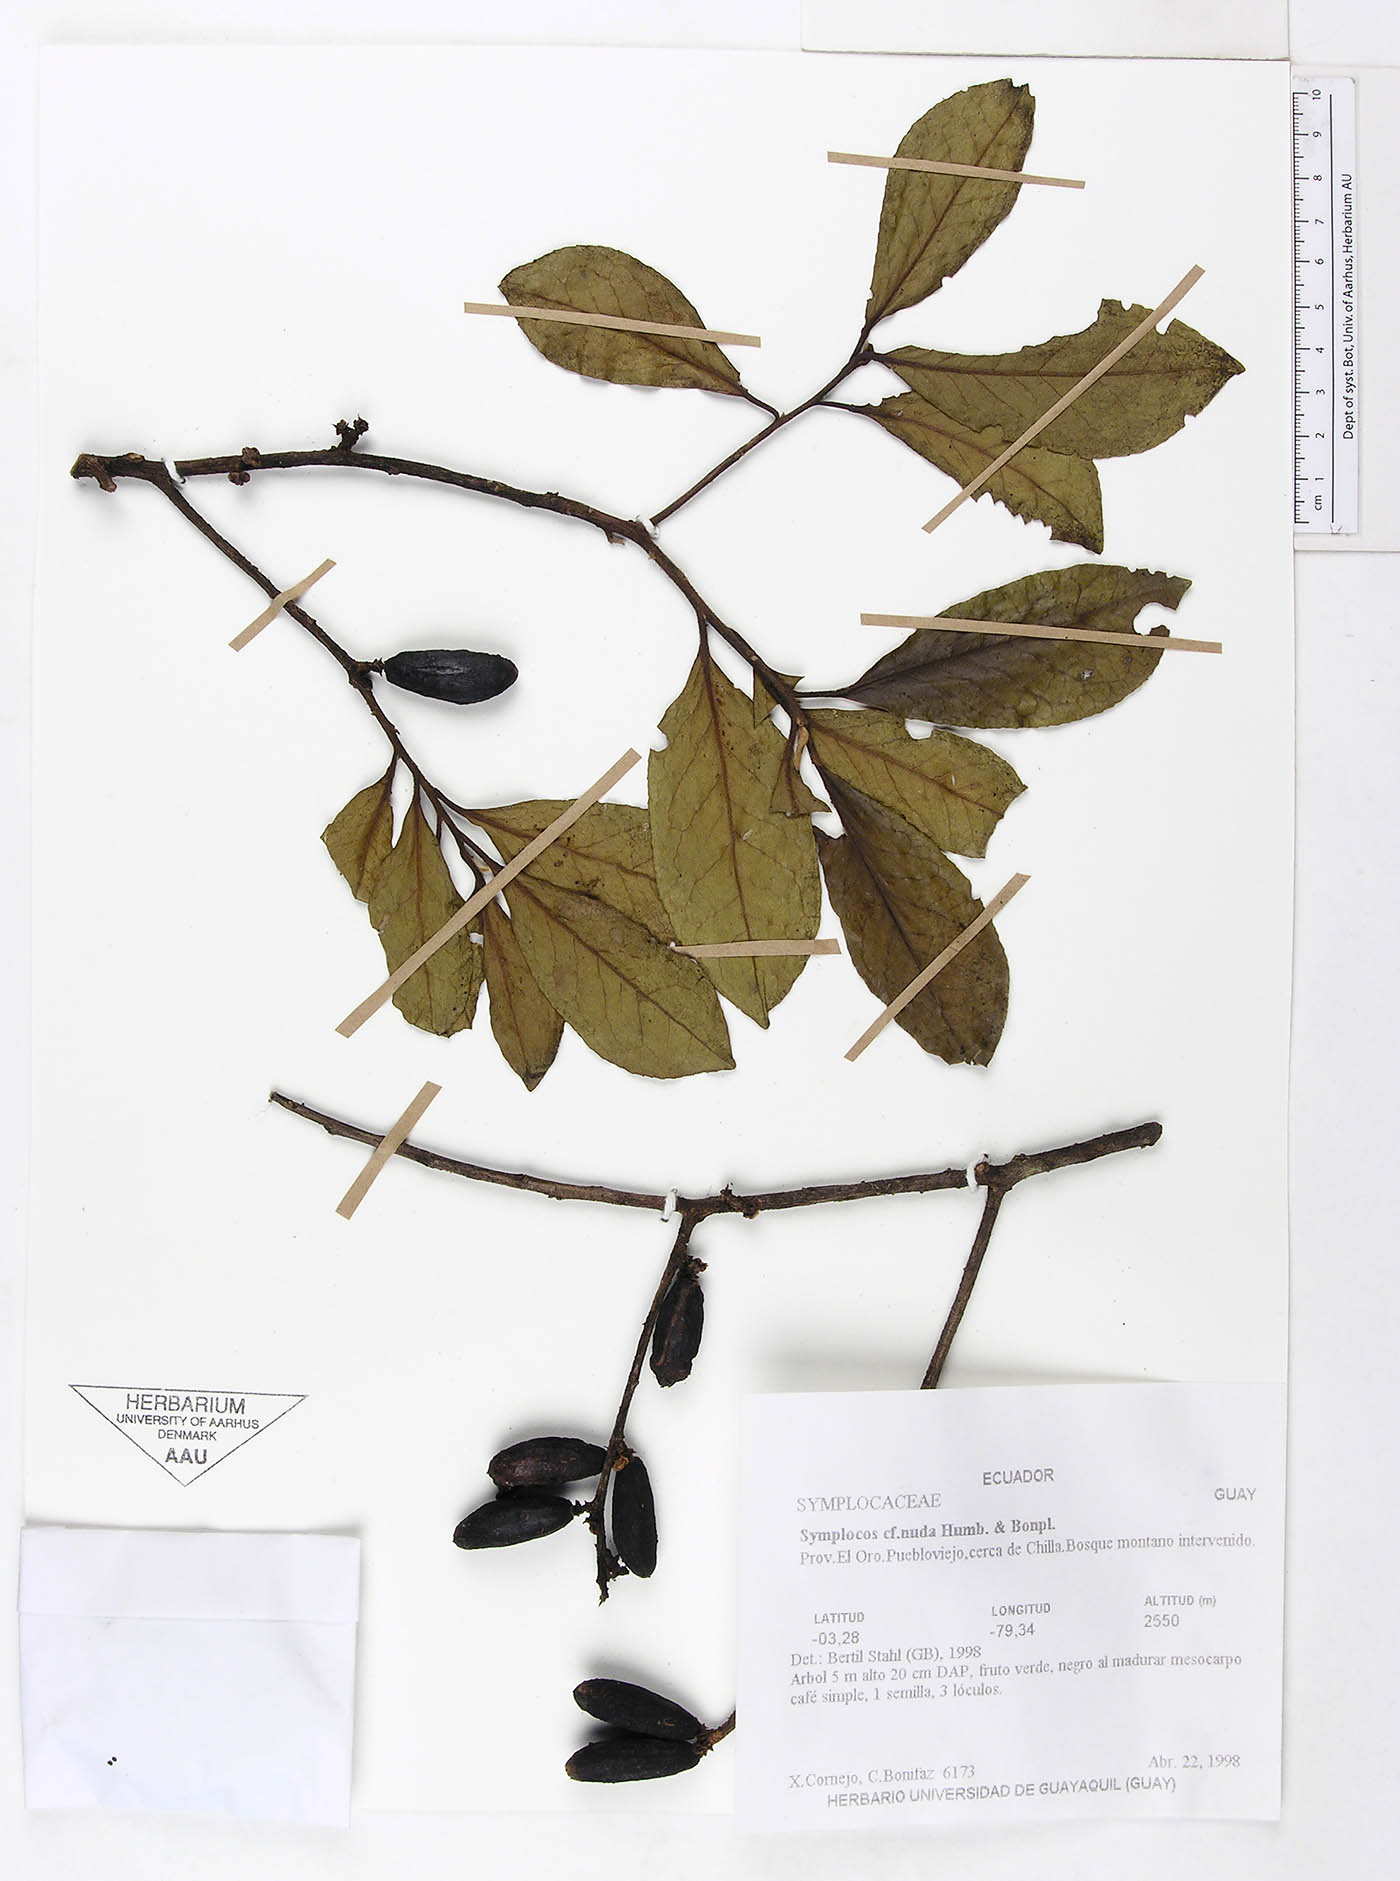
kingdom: Plantae
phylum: Tracheophyta
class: Magnoliopsida
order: Ericales
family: Symplocaceae
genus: Symplocos
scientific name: Symplocos nuda
